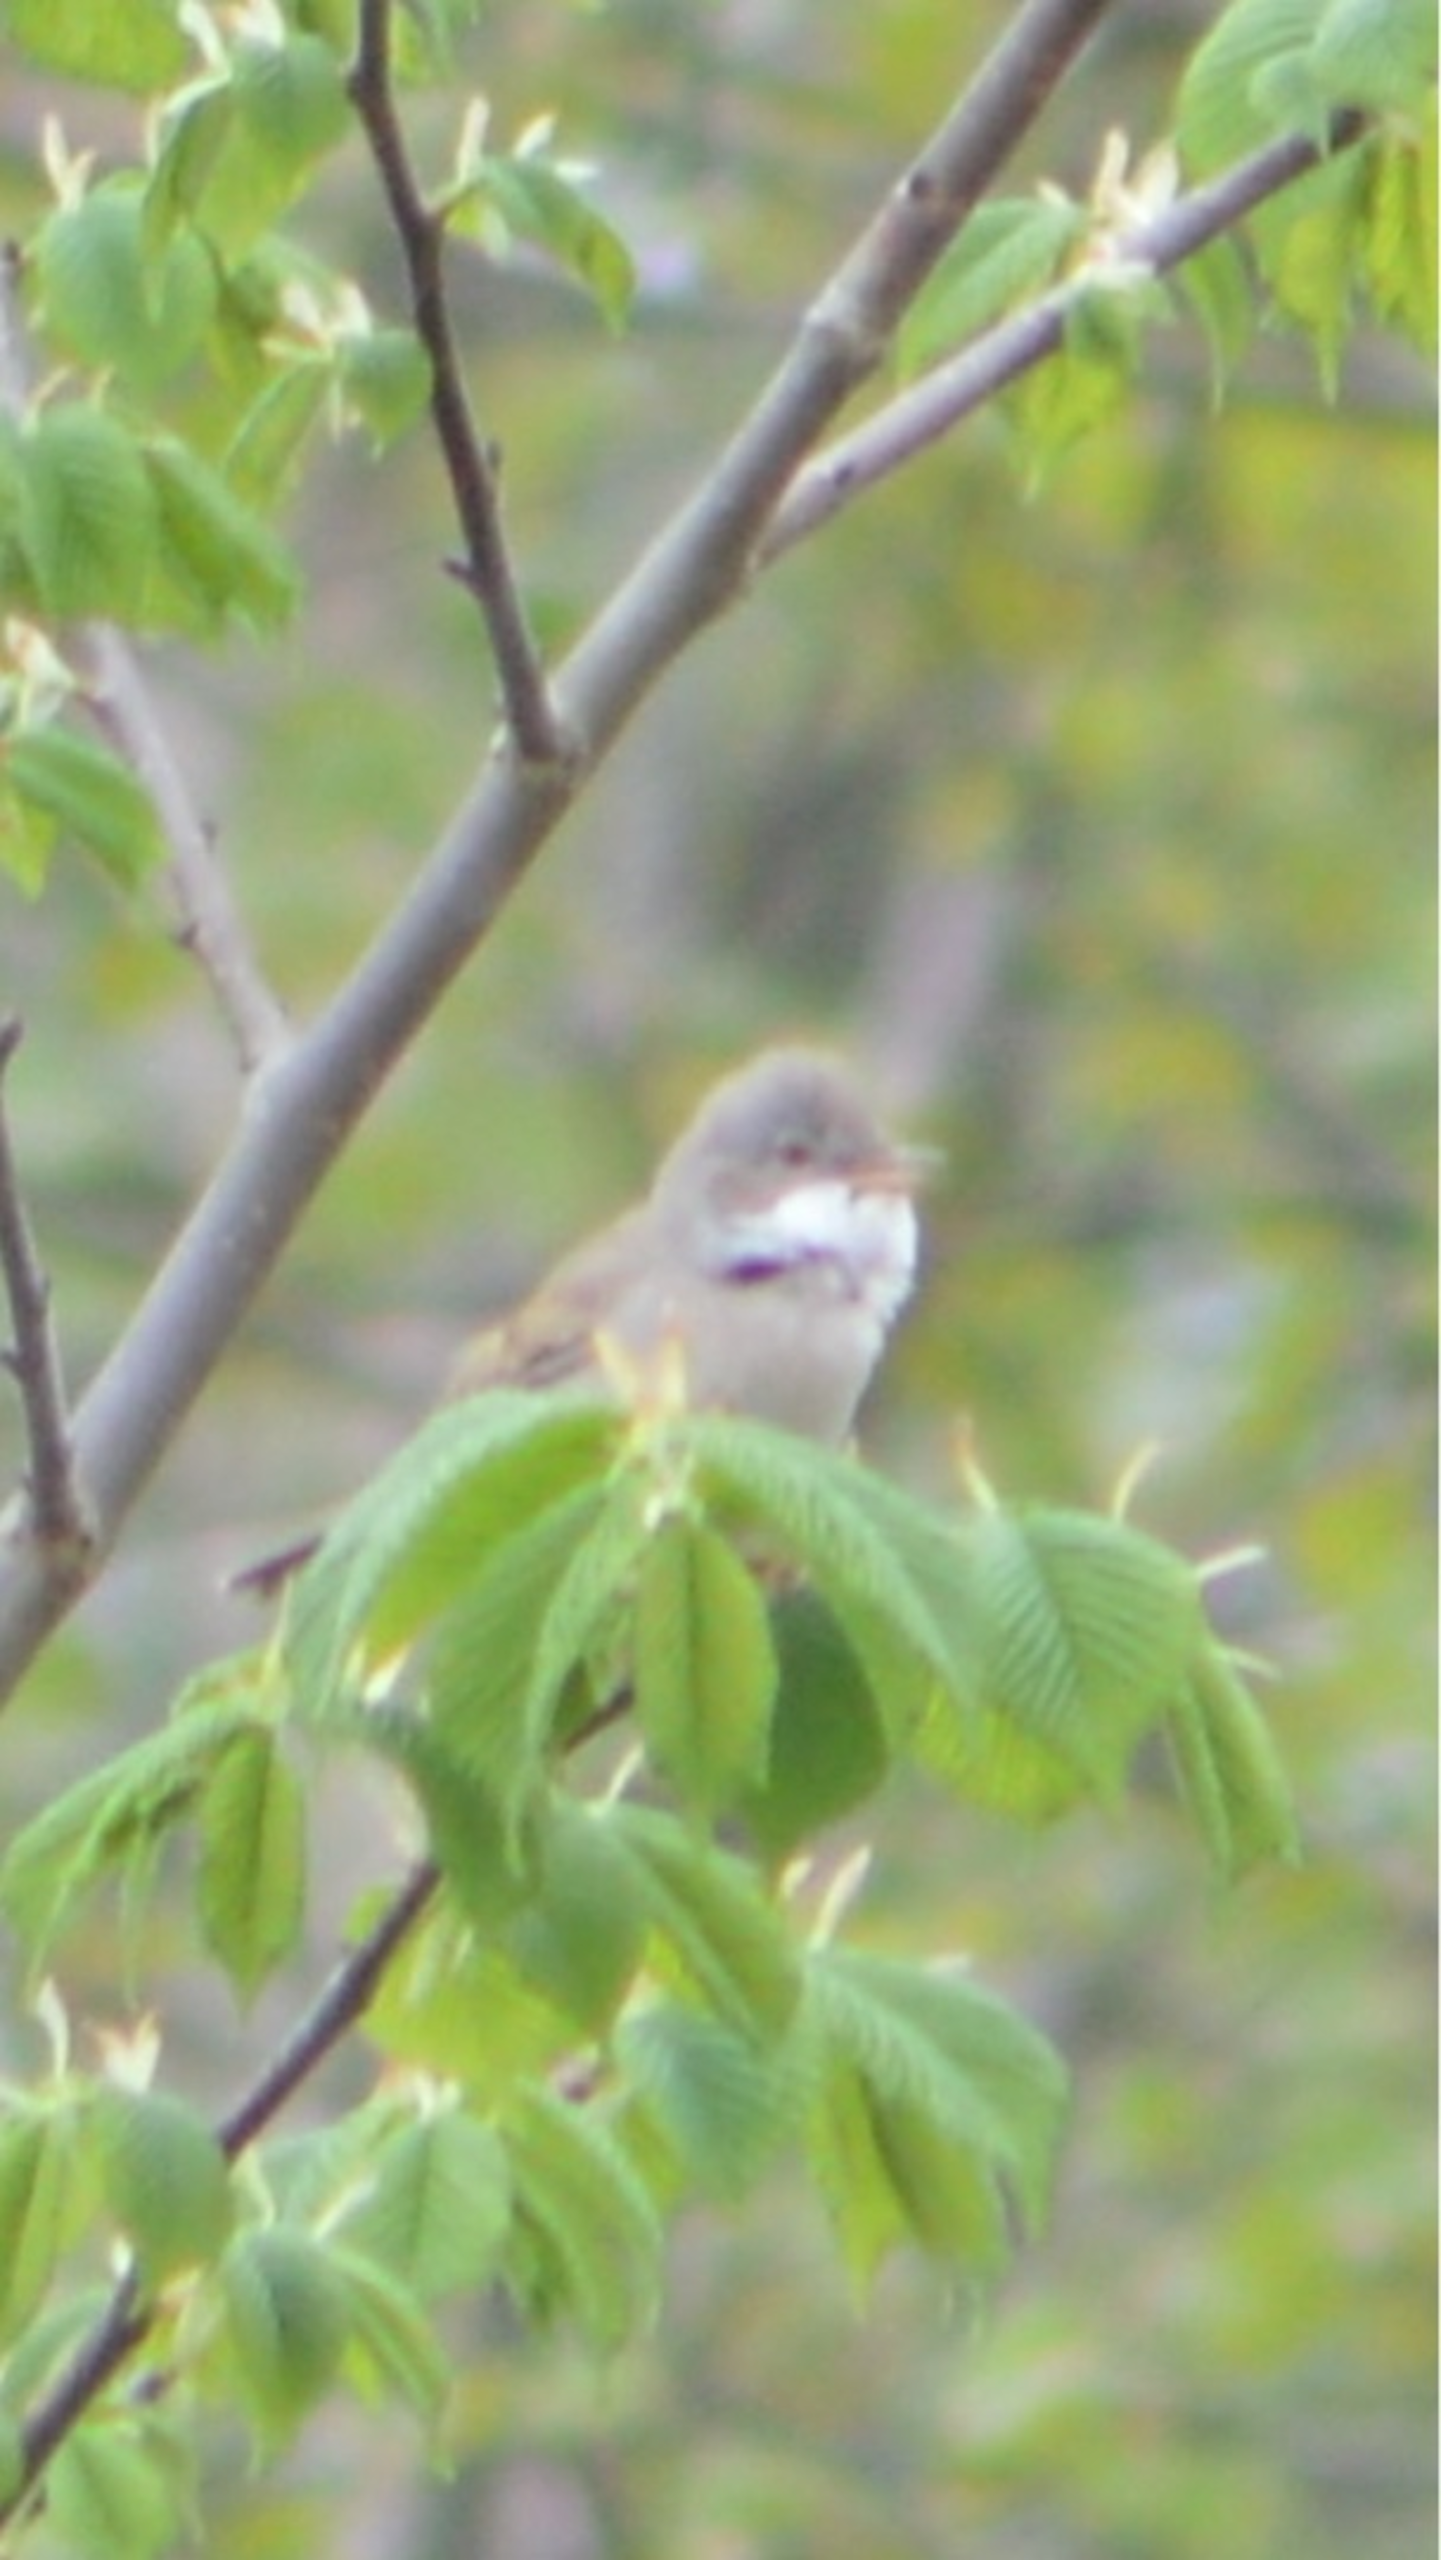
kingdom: Animalia
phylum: Chordata
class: Aves
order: Passeriformes
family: Sylviidae
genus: Sylvia
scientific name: Sylvia communis
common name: Tornsanger
